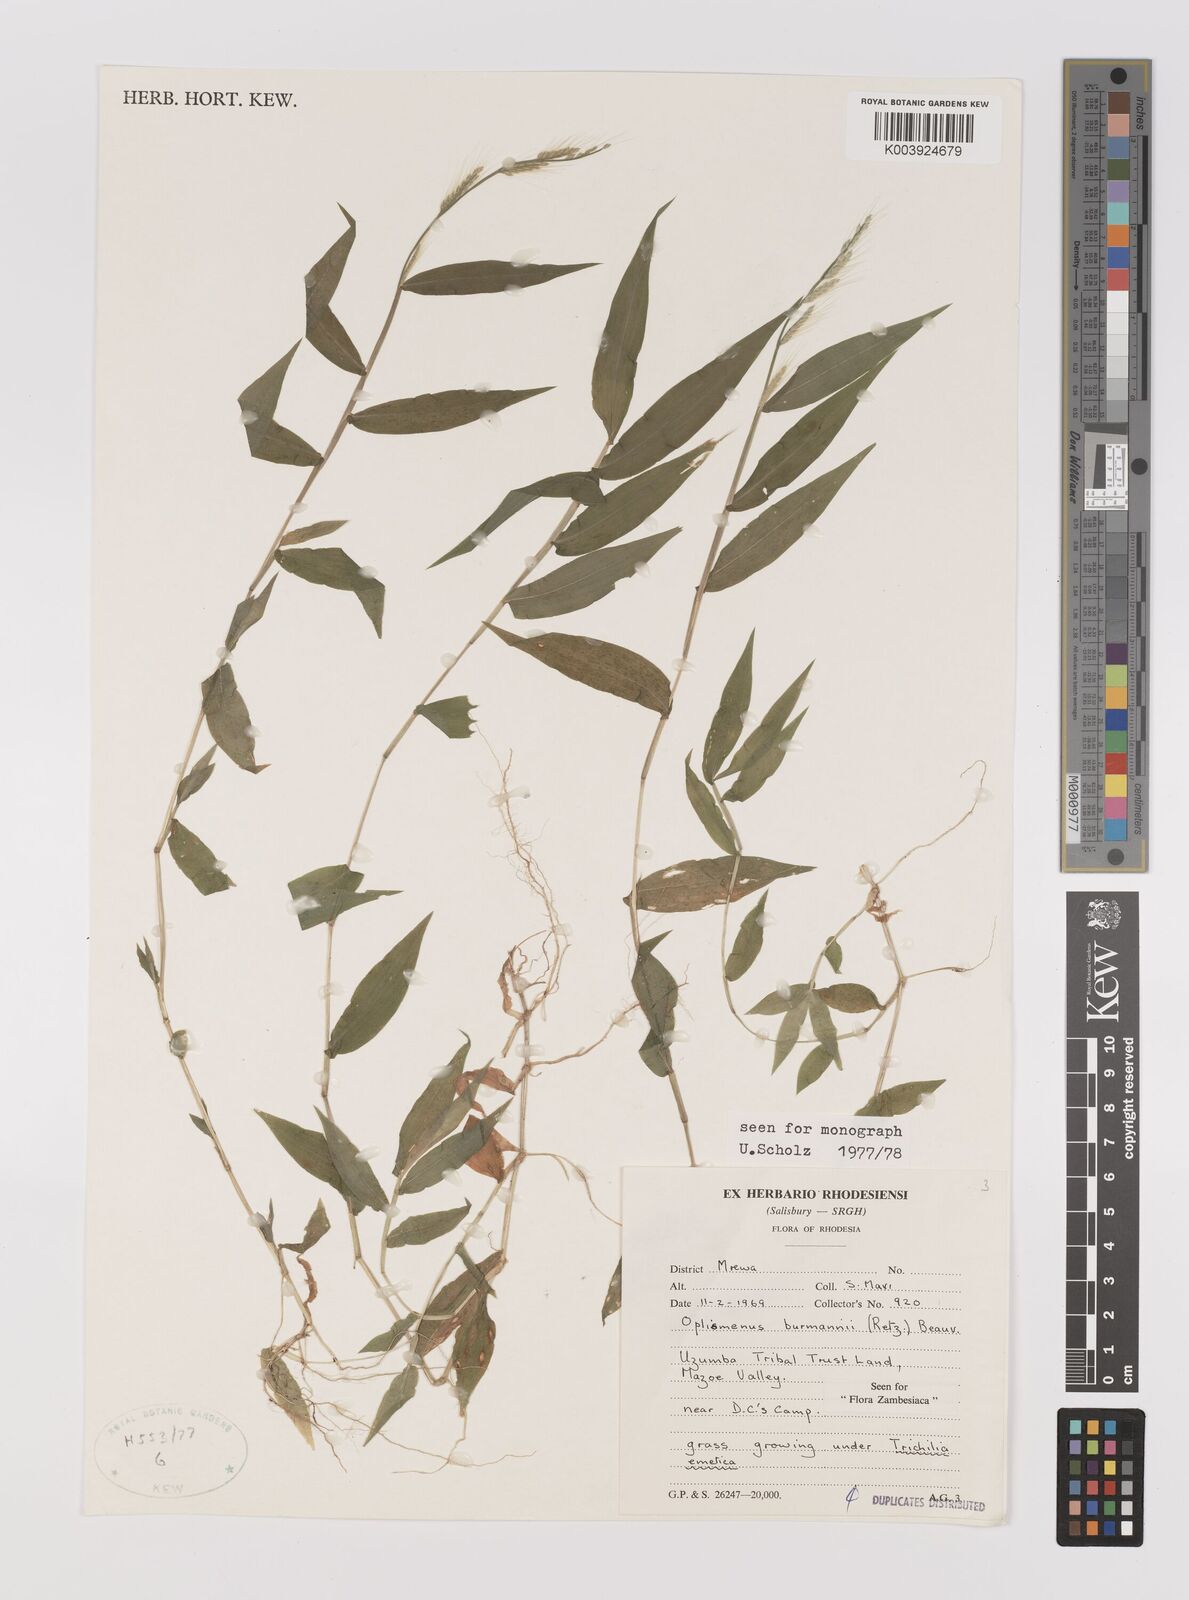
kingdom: Plantae
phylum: Tracheophyta
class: Liliopsida
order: Poales
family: Poaceae
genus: Oplismenus
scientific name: Oplismenus burmanni
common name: Burmann's basketgrass
